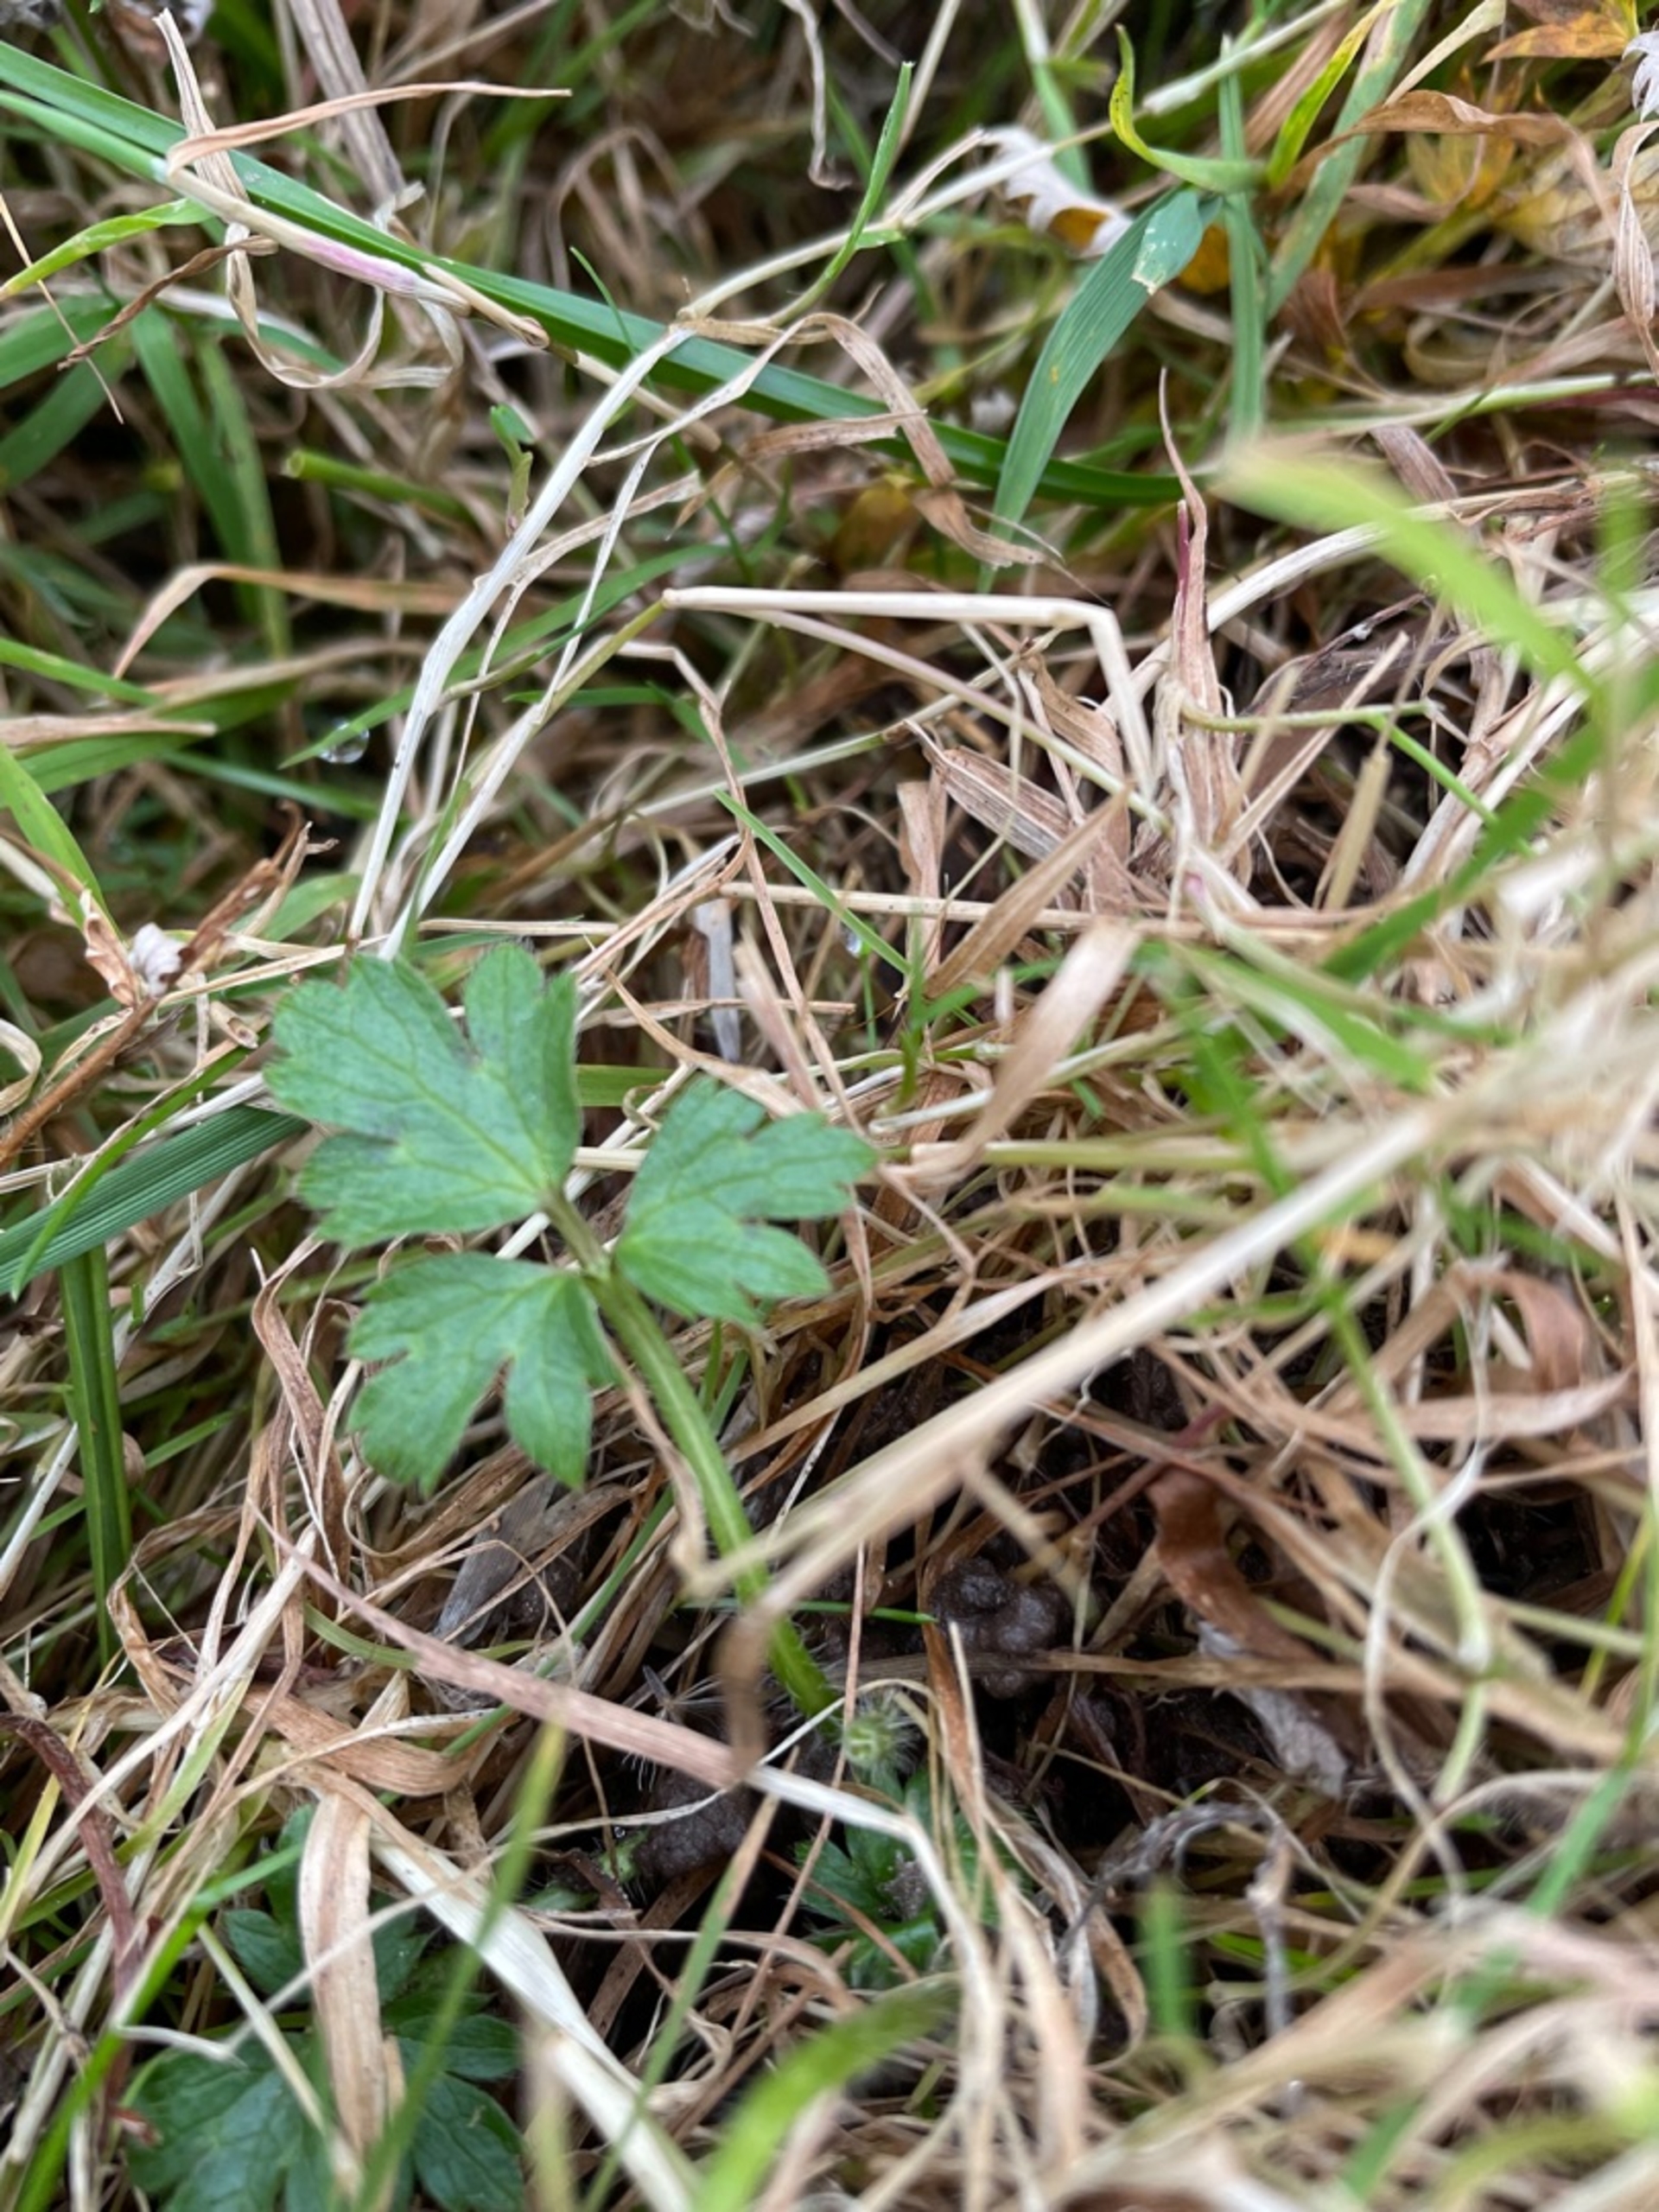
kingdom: Plantae
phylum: Tracheophyta
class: Magnoliopsida
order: Ranunculales
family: Ranunculaceae
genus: Ranunculus
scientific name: Ranunculus repens
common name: Lav ranunkel
